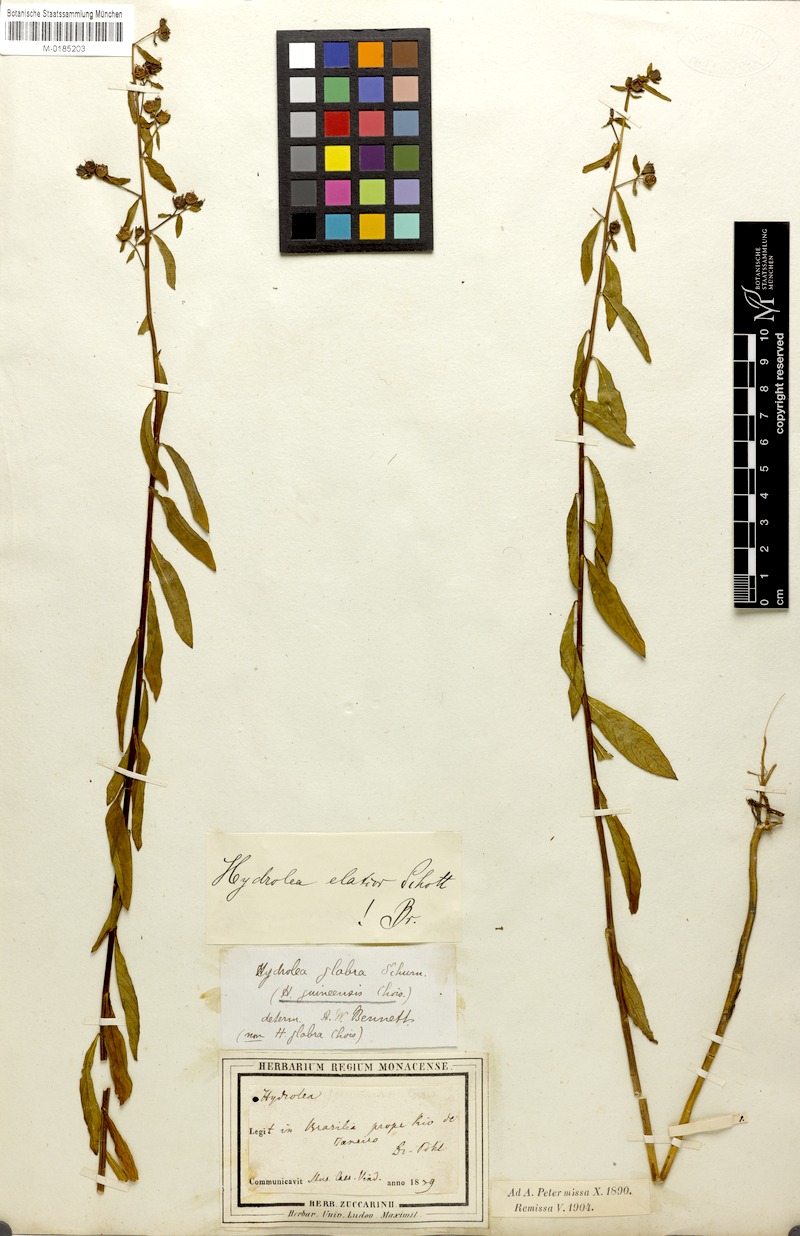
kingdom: Plantae
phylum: Tracheophyta
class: Magnoliopsida
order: Solanales
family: Hydroleaceae
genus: Hydrolea
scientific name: Hydrolea elatior
